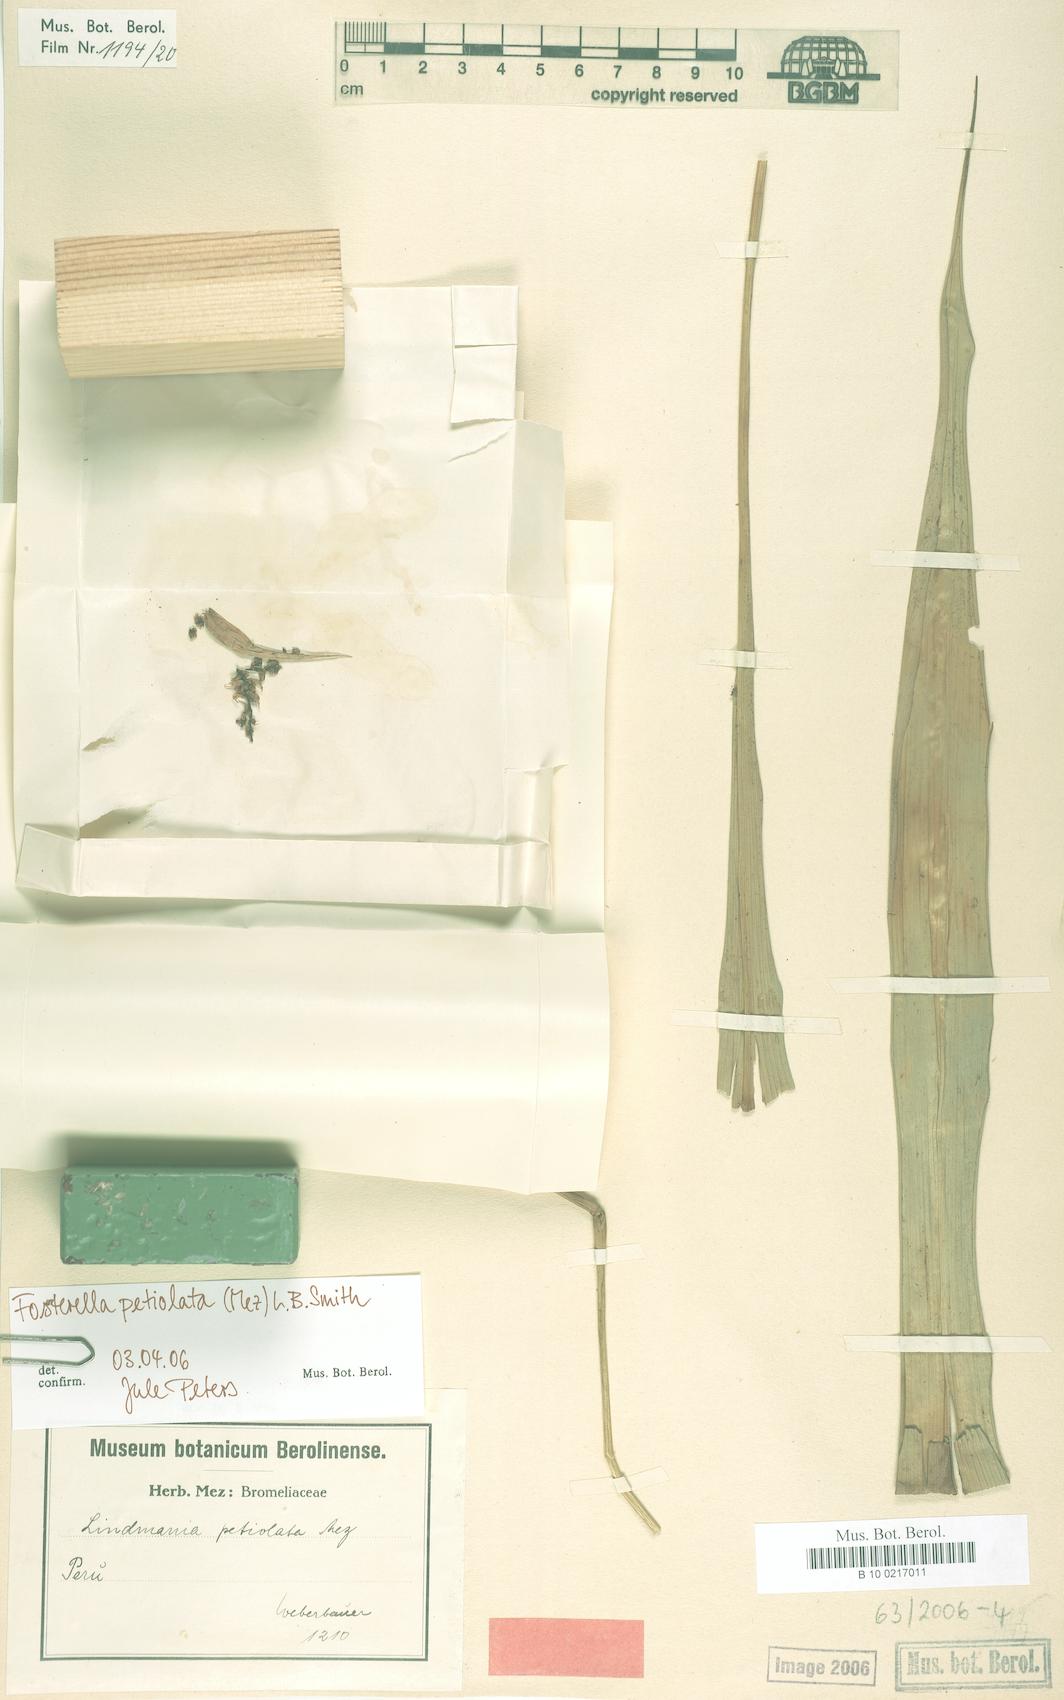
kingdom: Plantae
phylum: Tracheophyta
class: Liliopsida
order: Poales
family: Bromeliaceae
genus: Fosterella
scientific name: Fosterella petiolata
